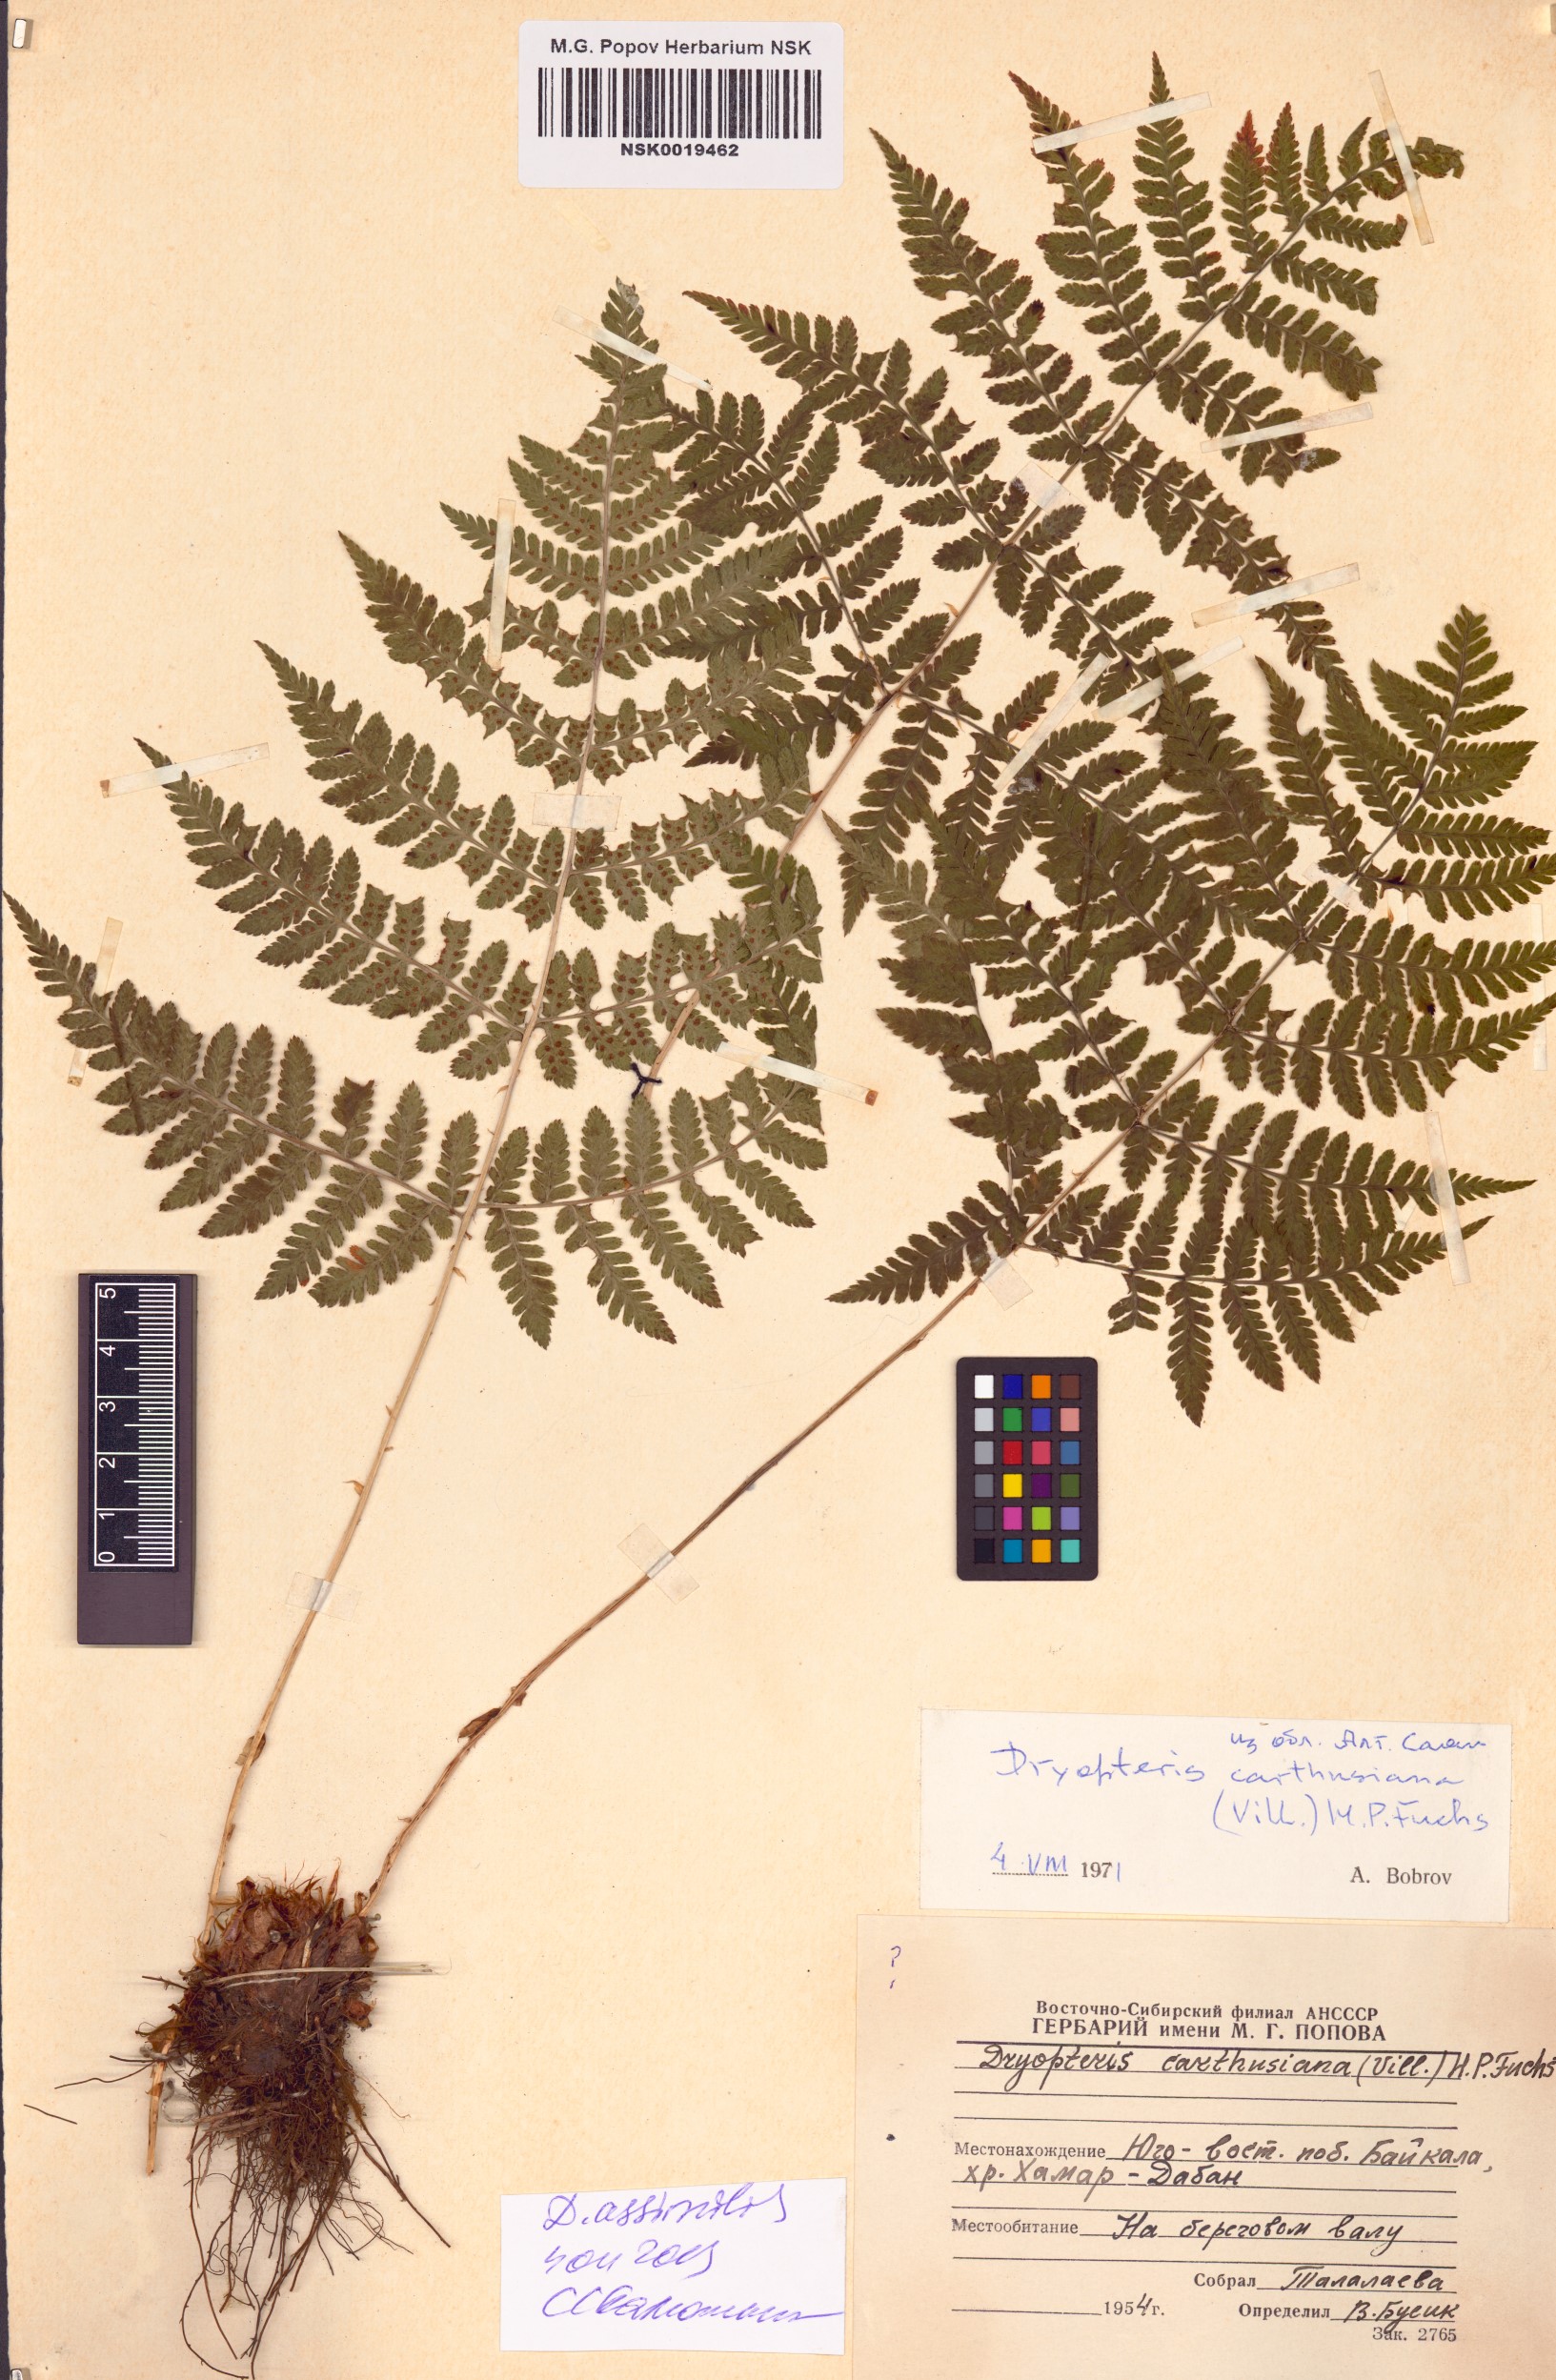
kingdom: Plantae
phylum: Tracheophyta
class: Polypodiopsida
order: Polypodiales
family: Dryopteridaceae
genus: Dryopteris
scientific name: Dryopteris expansa
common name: Northern buckler fern
